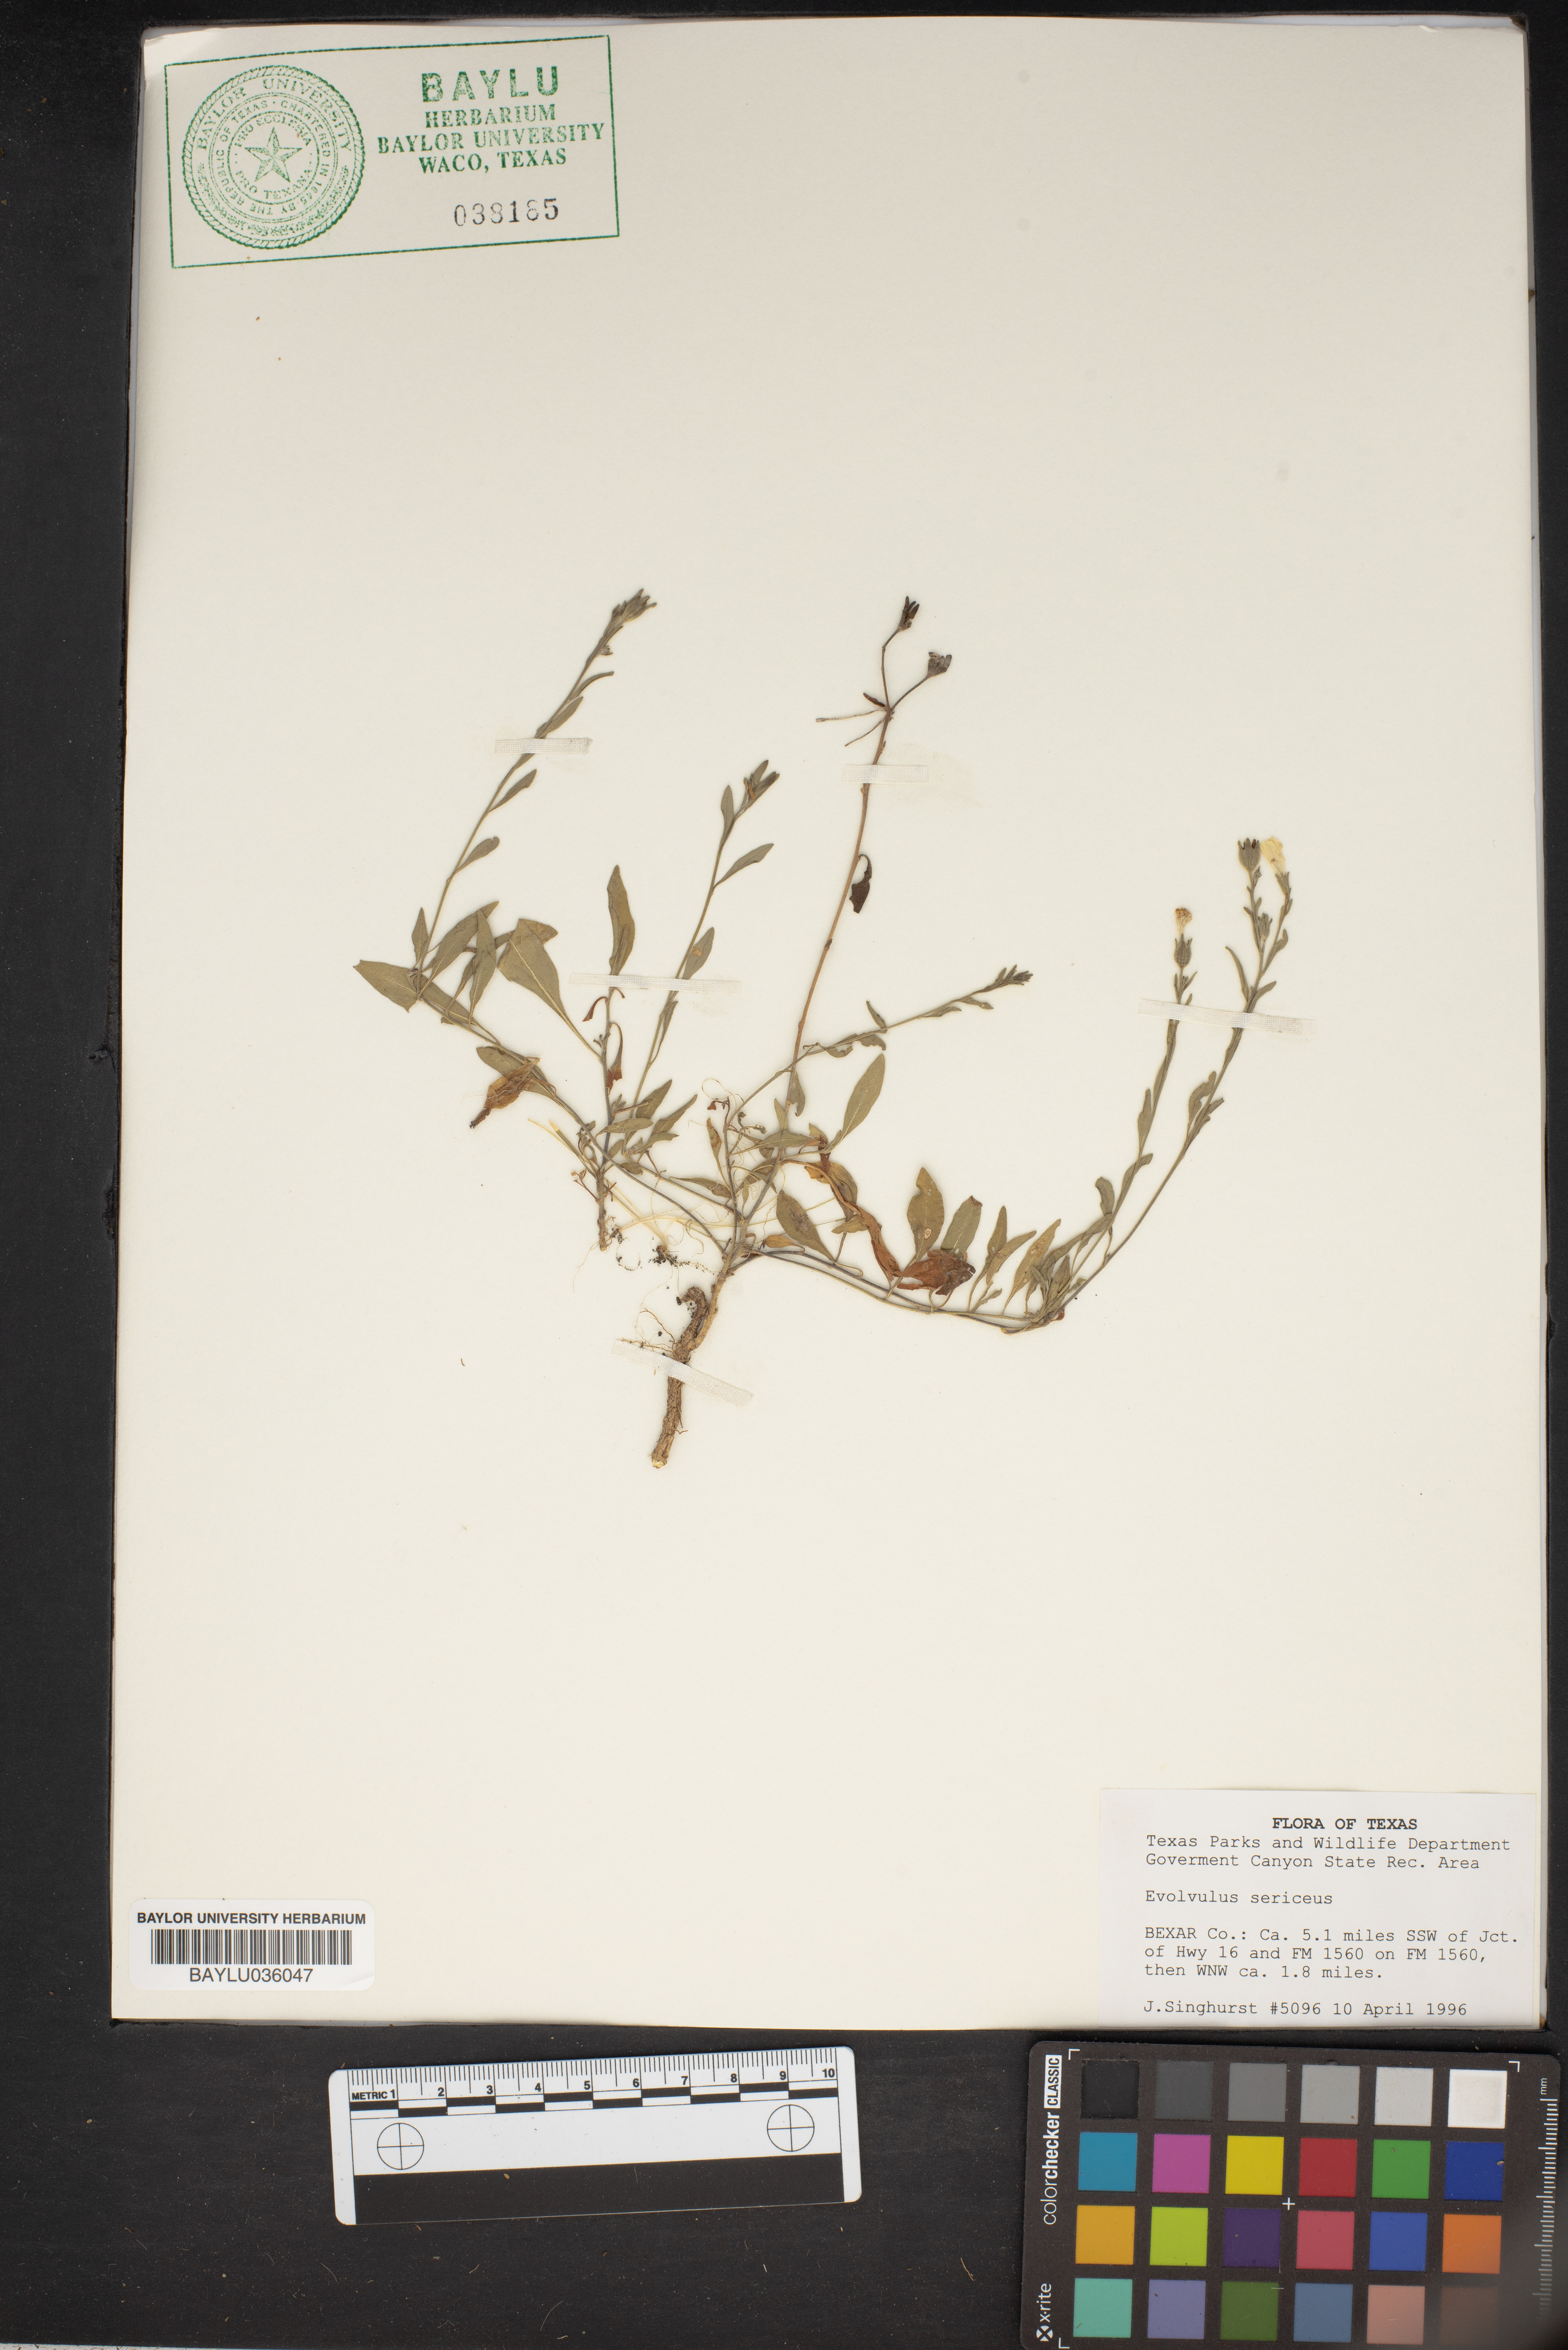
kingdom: Plantae
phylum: Tracheophyta
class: Magnoliopsida
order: Solanales
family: Convolvulaceae
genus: Evolvulus
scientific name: Evolvulus sericeus
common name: Blue dots
